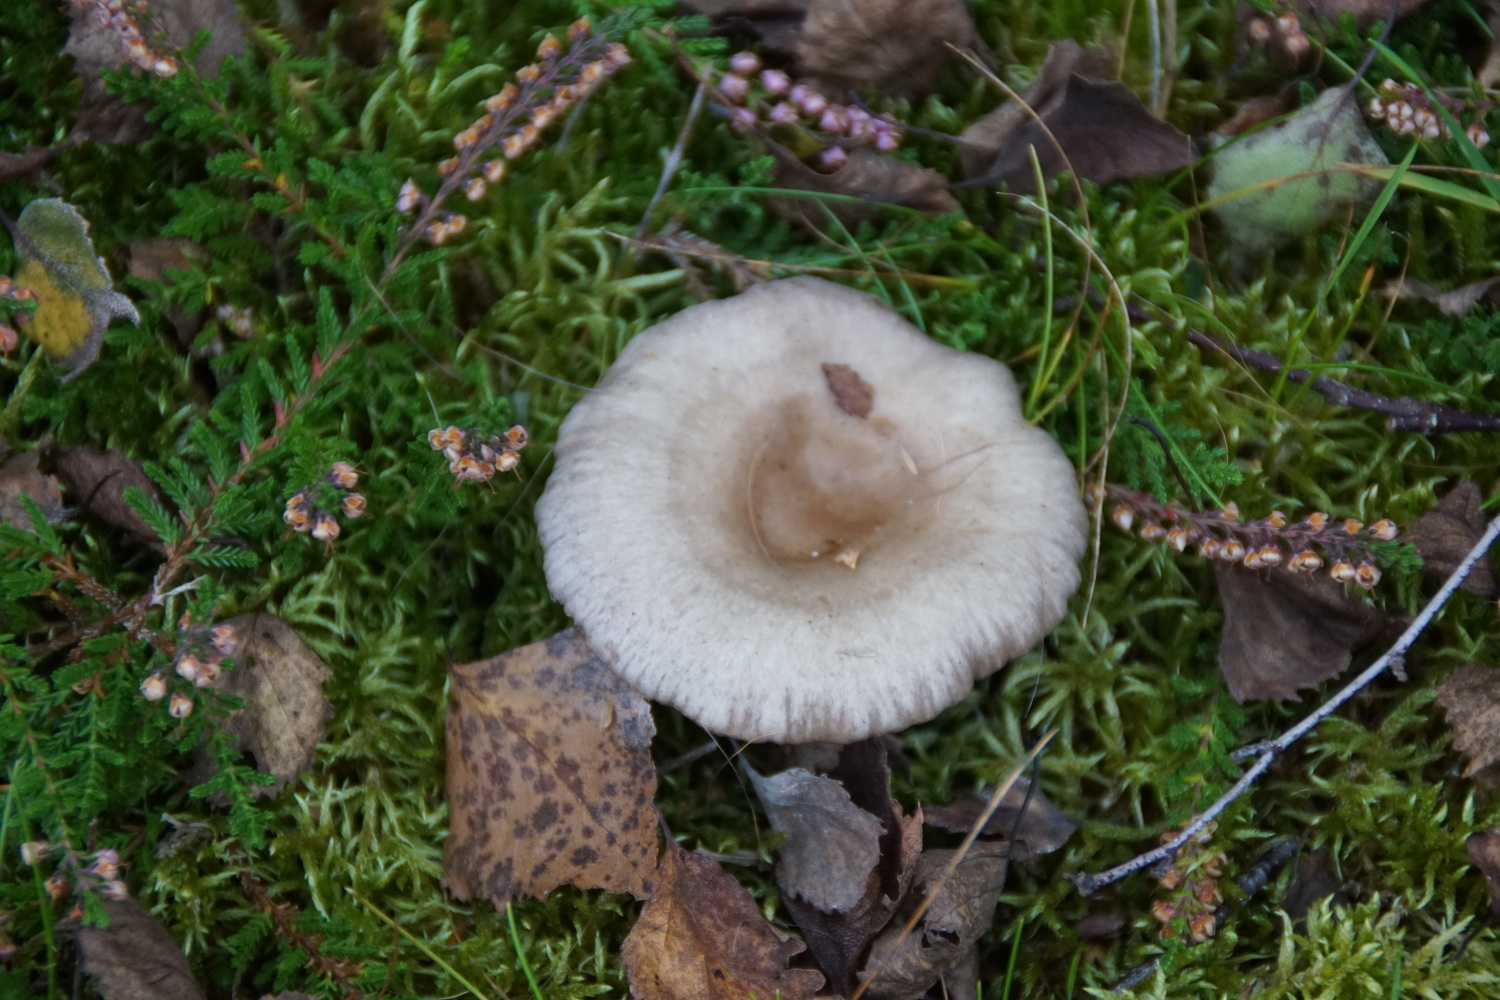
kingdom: Fungi
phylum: Basidiomycota
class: Agaricomycetes
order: Russulales
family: Russulaceae
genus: Lactarius
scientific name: Lactarius vietus
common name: violetgrå mælkehat
